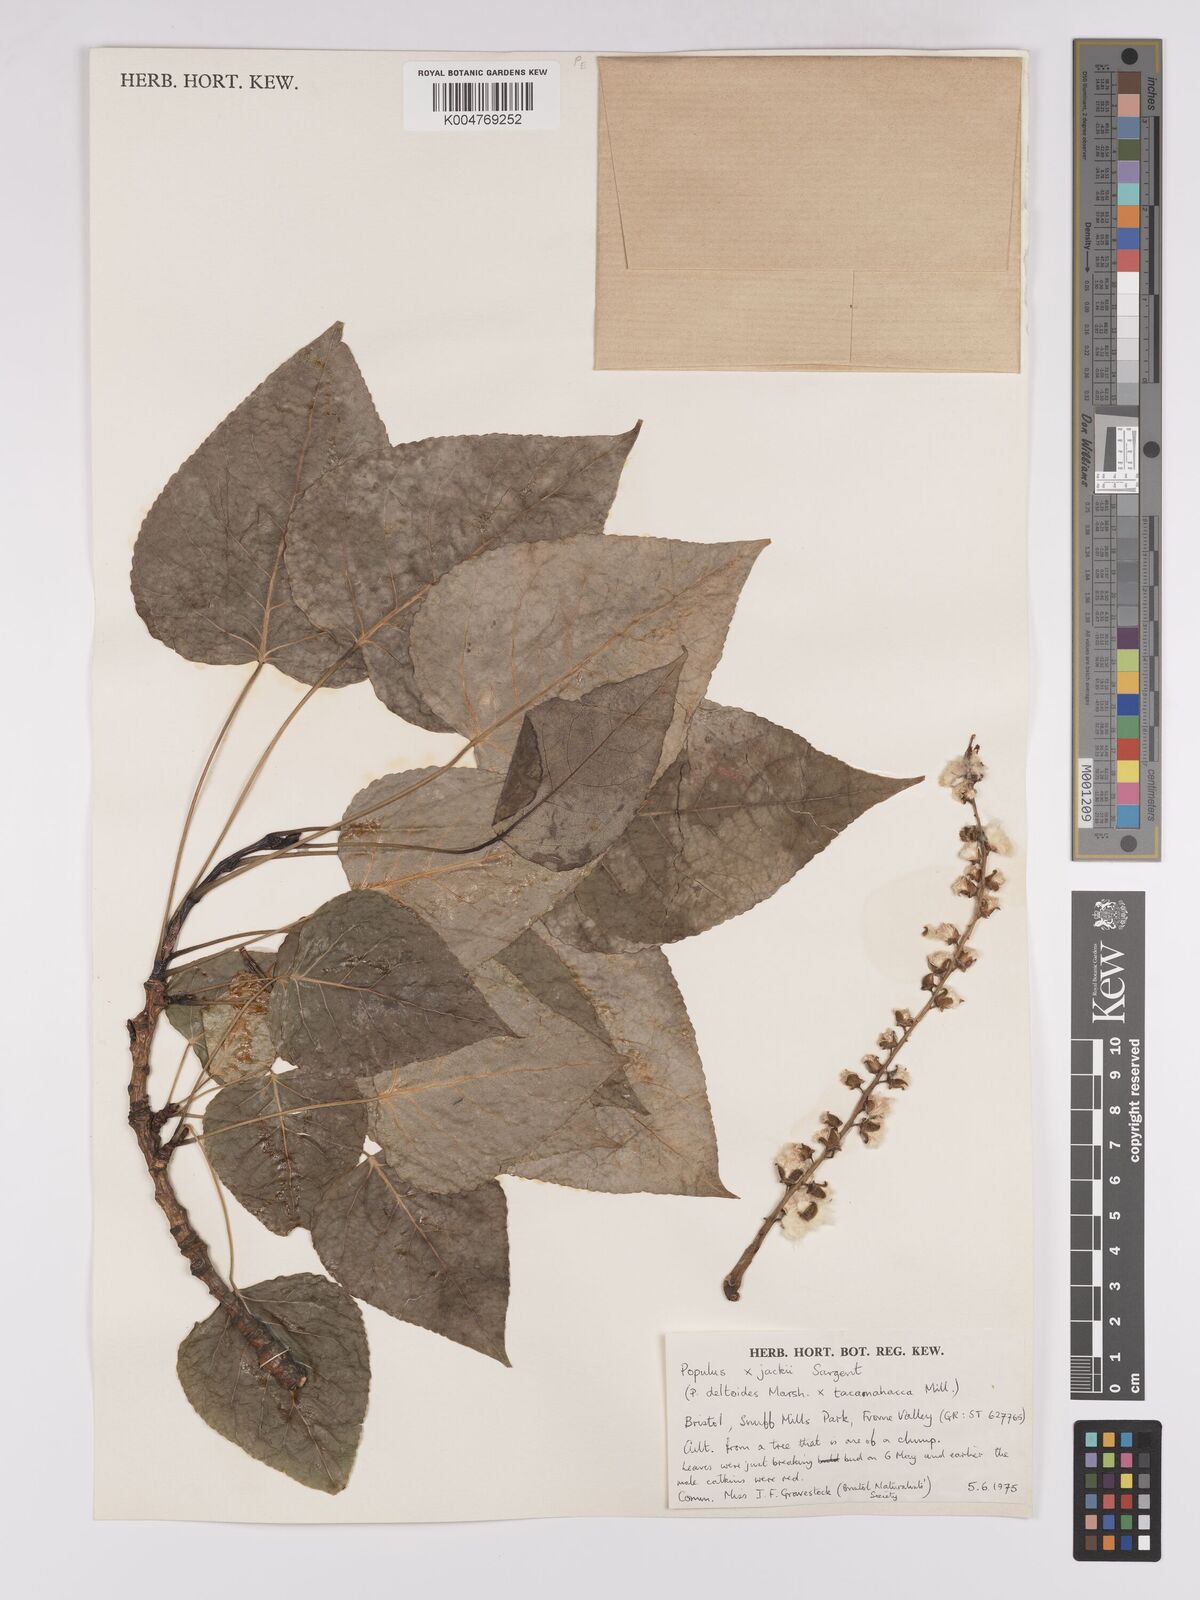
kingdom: Plantae
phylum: Tracheophyta
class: Magnoliopsida
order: Malpighiales
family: Salicaceae
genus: Populus
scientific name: Populus jackii
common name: Balm-of-gilead
